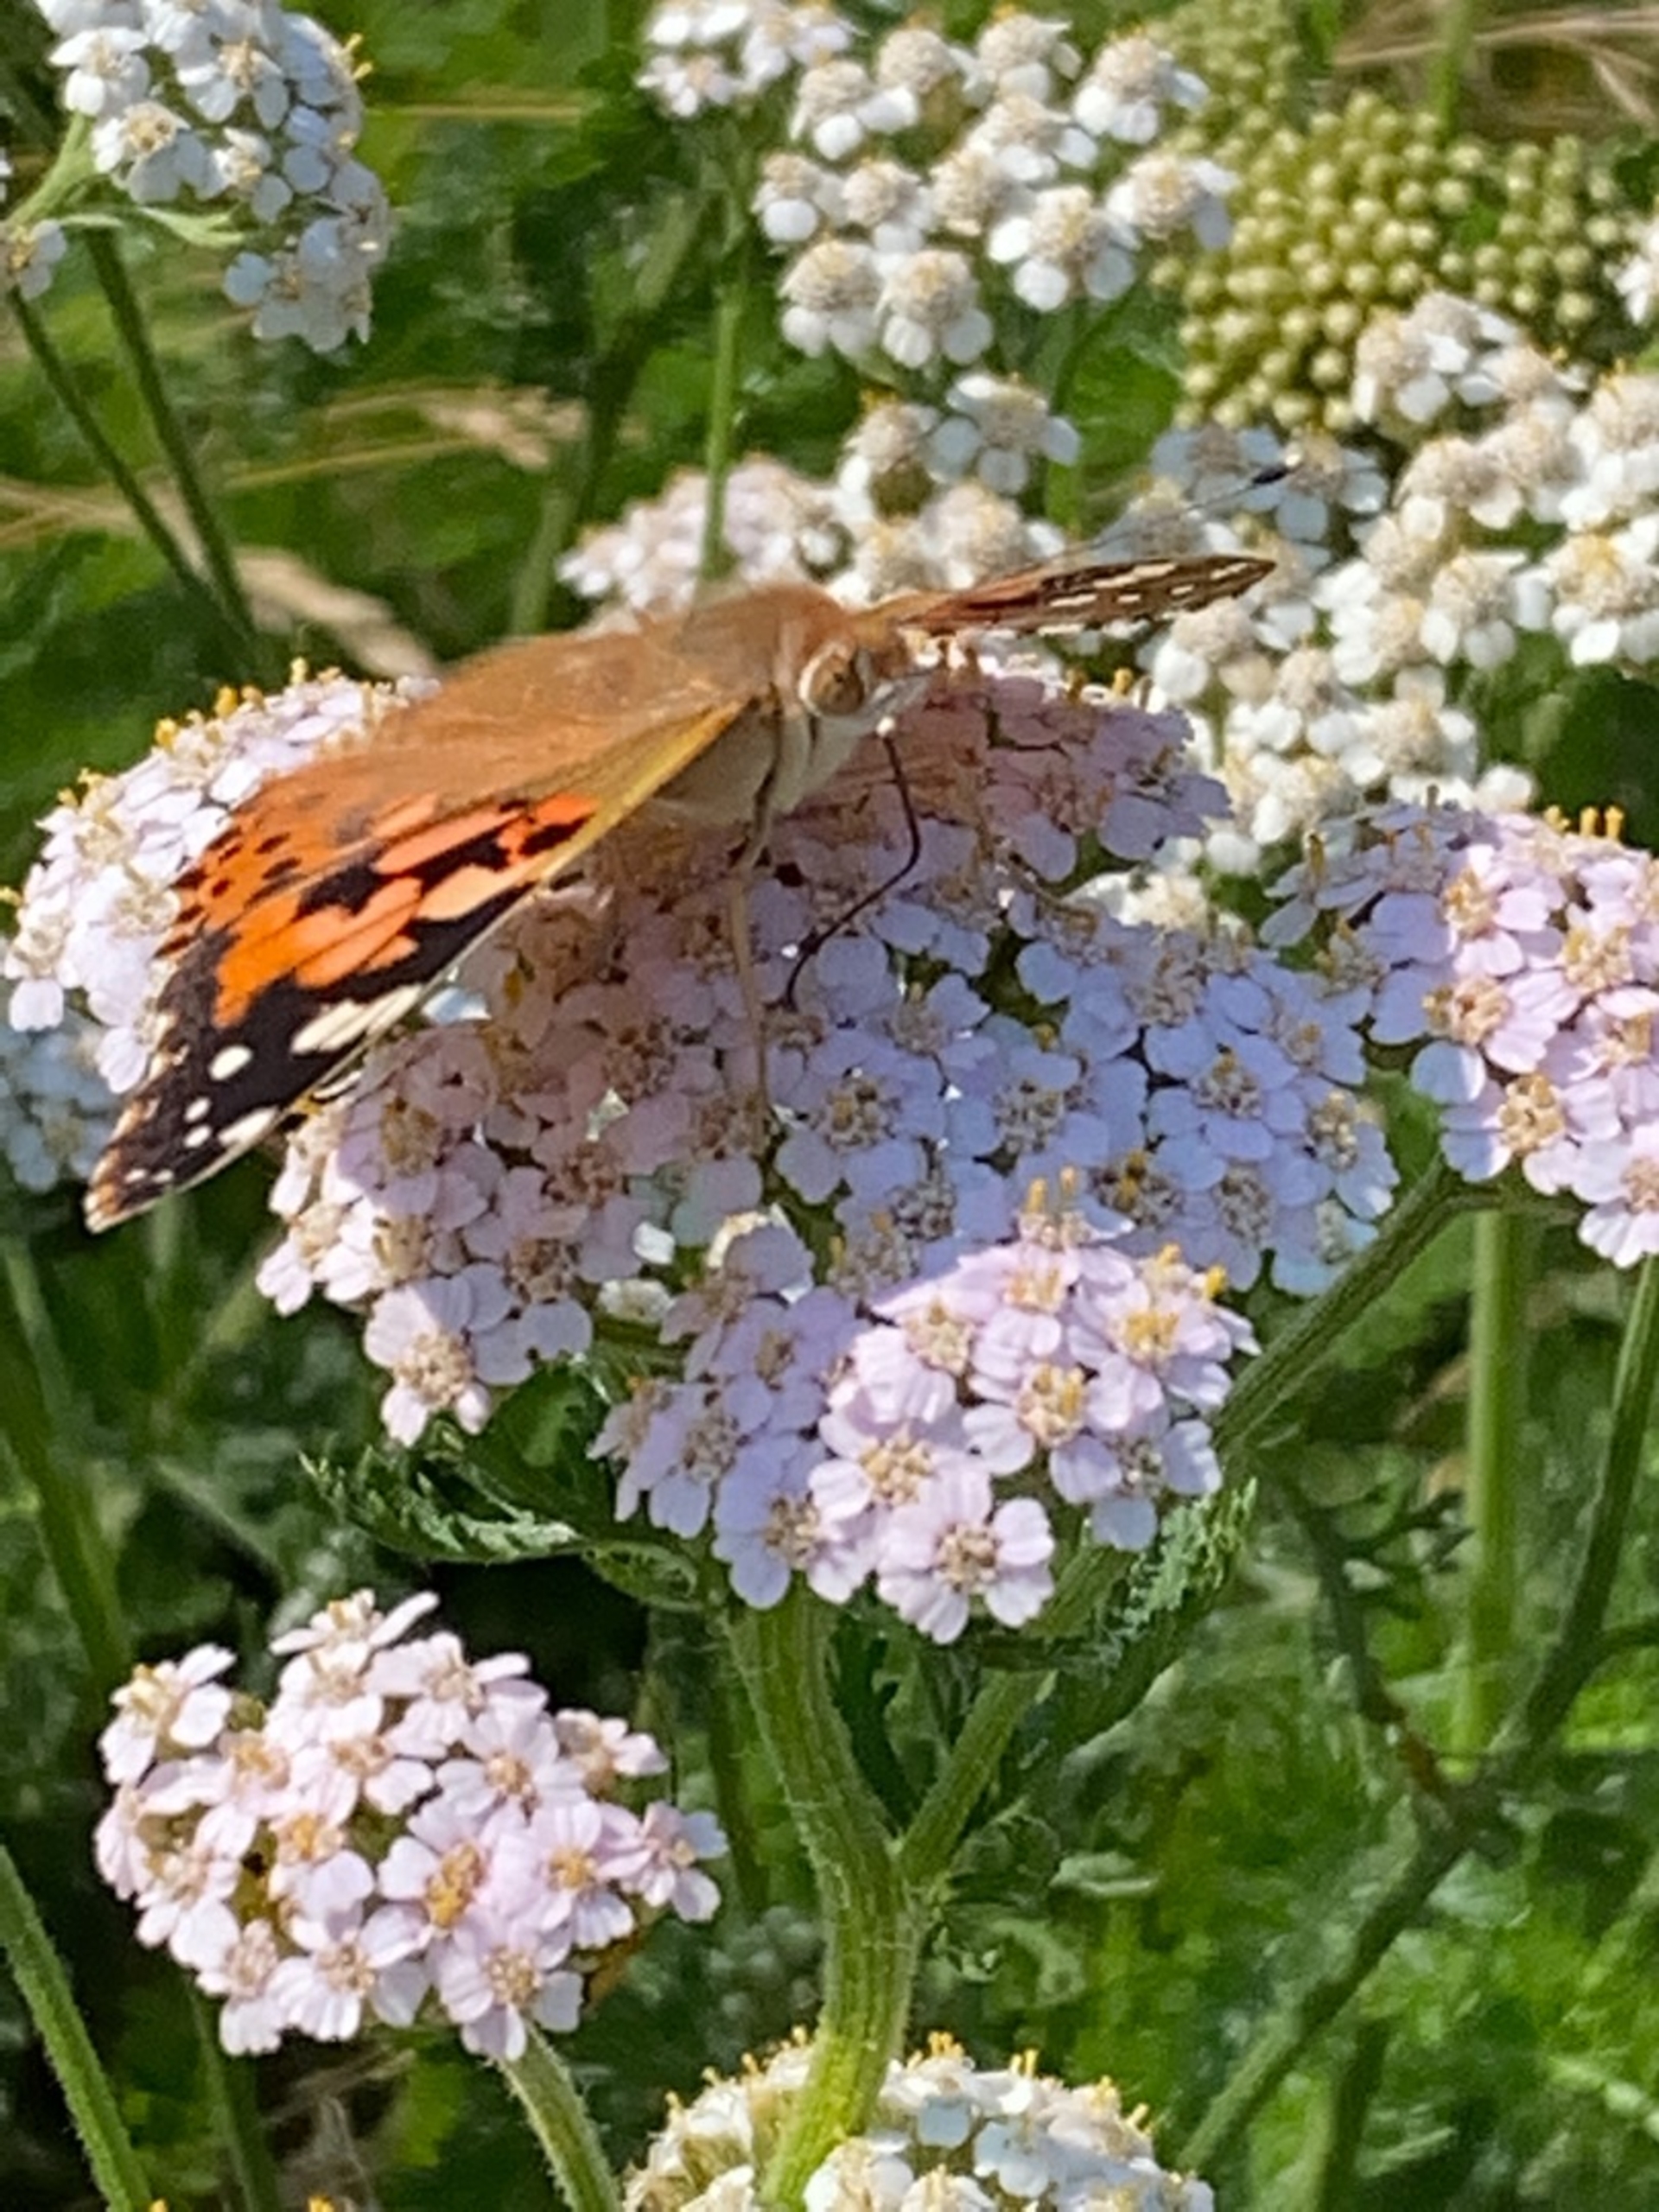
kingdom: Animalia
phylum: Arthropoda
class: Insecta
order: Lepidoptera
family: Nymphalidae
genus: Vanessa
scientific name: Vanessa cardui
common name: Tidselsommerfugl
